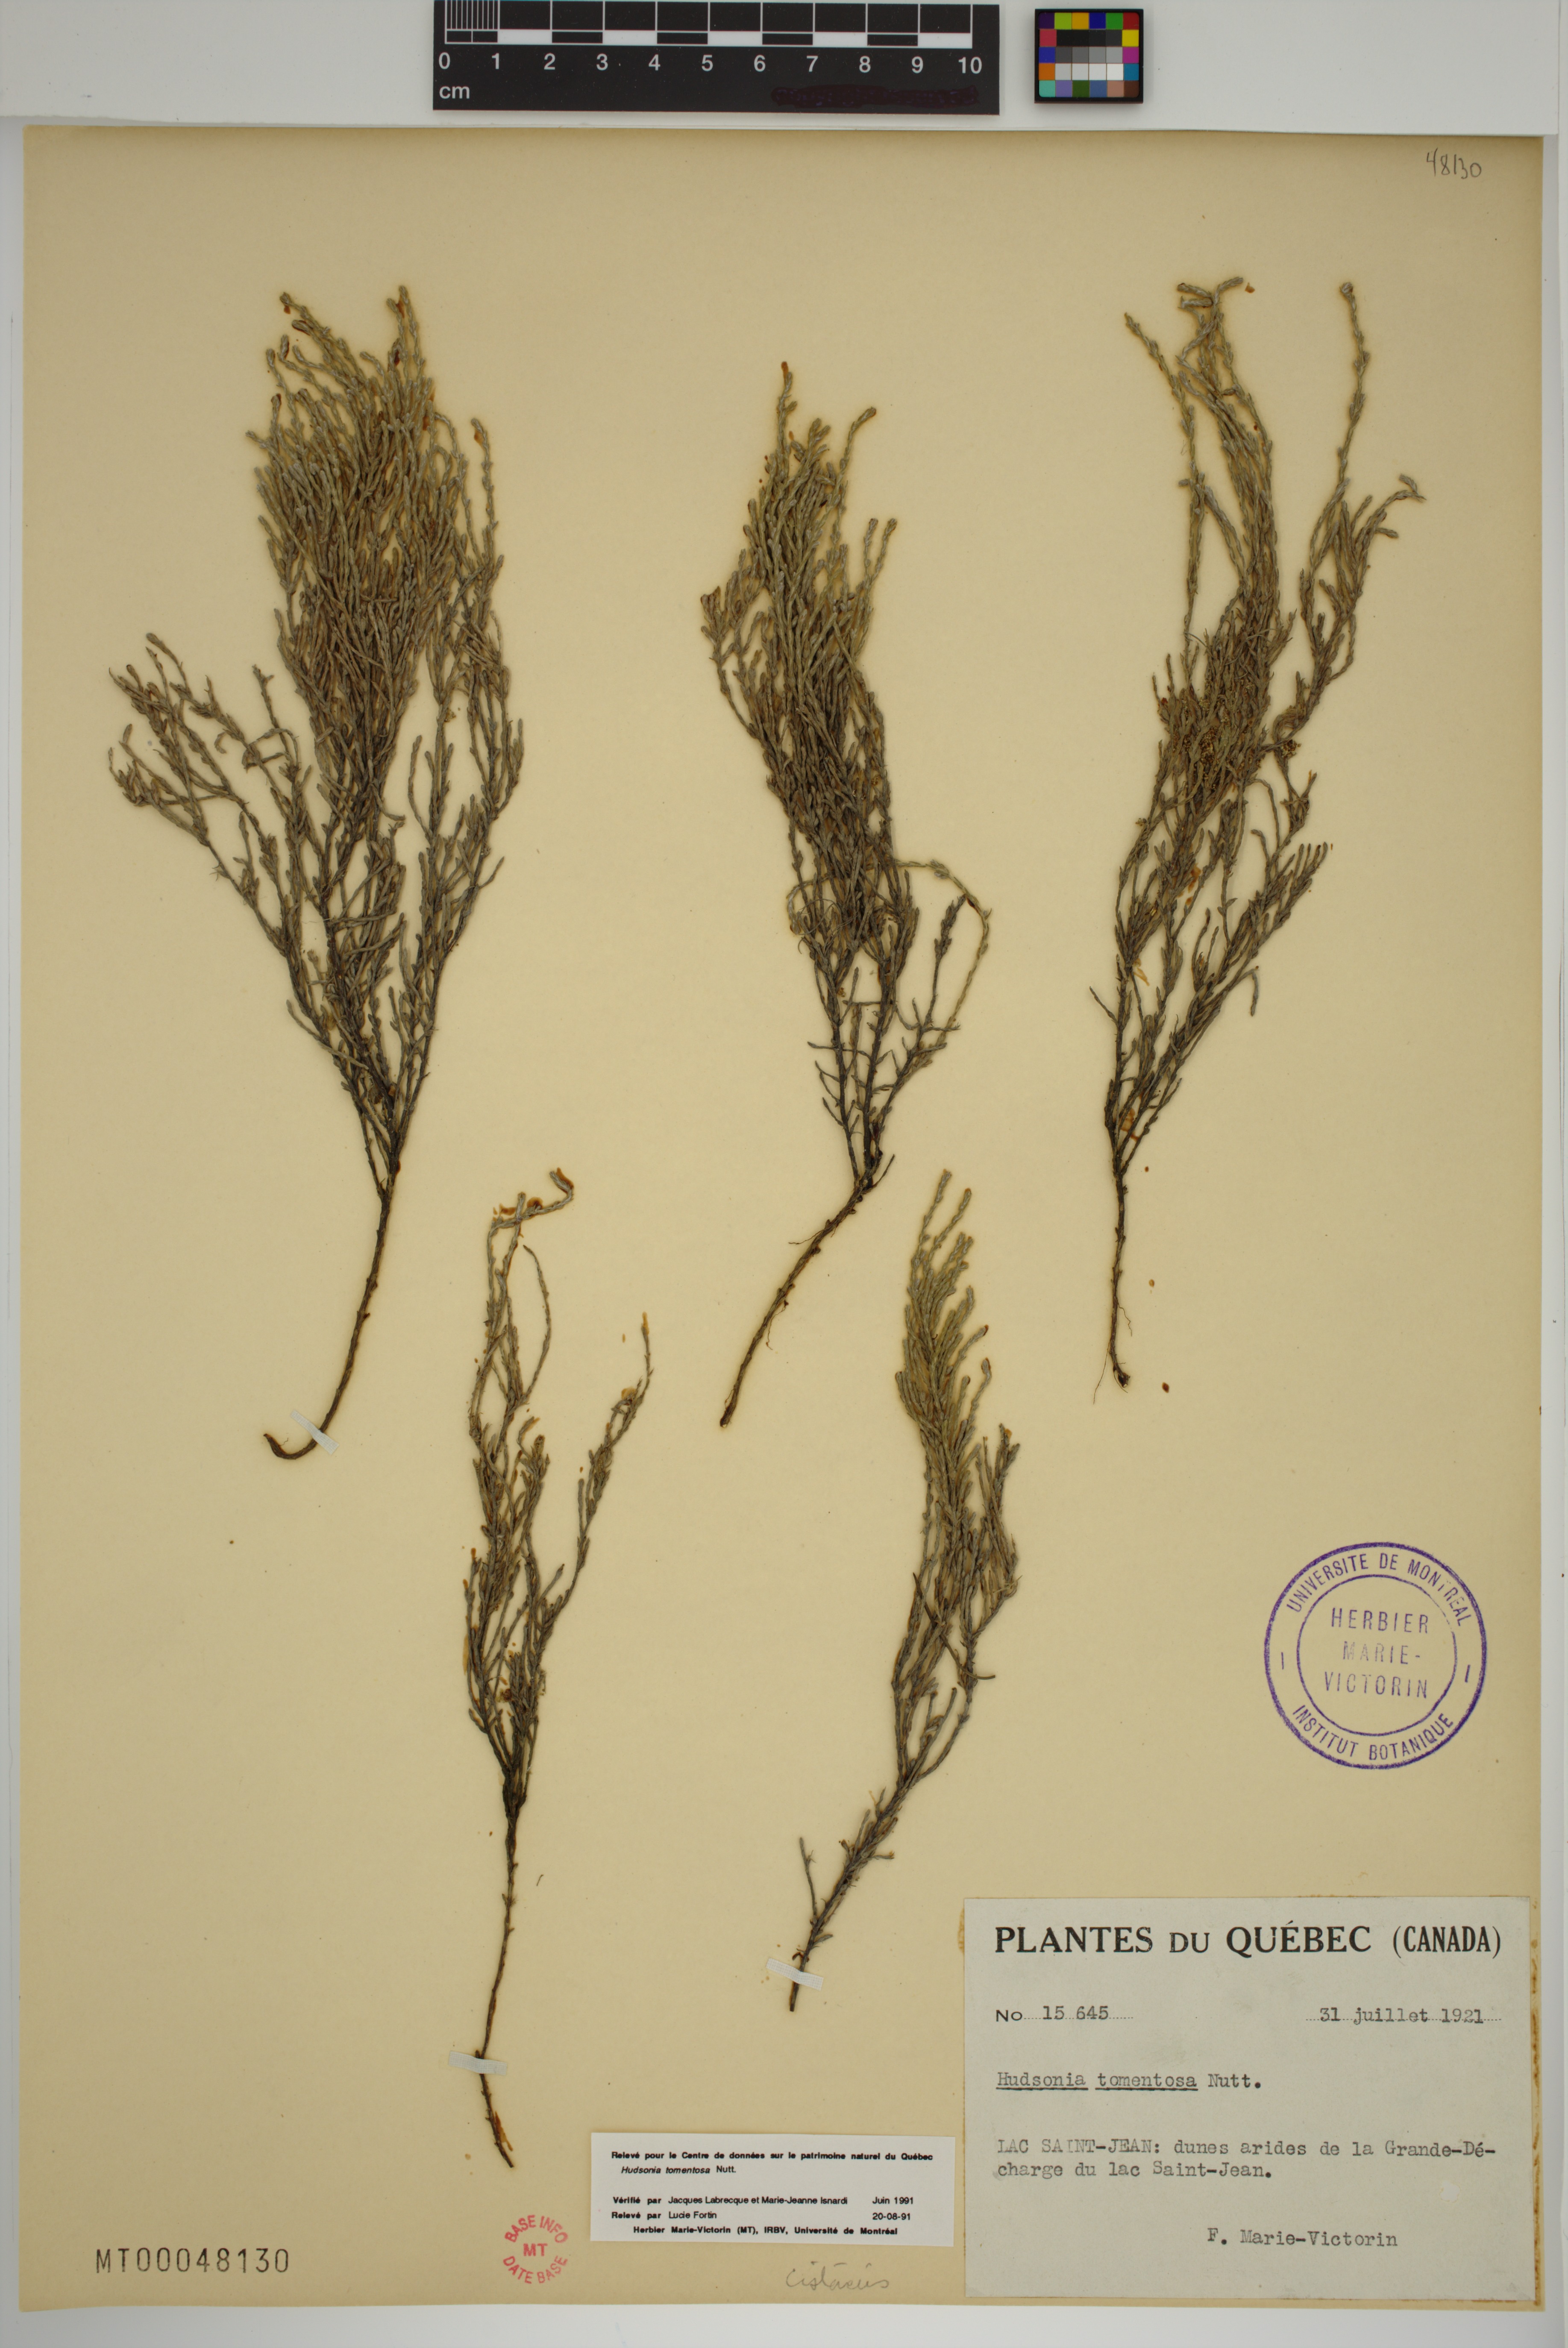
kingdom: Plantae
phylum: Tracheophyta
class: Magnoliopsida
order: Malvales
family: Cistaceae
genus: Hudsonia
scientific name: Hudsonia tomentosa
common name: Beach-heath
